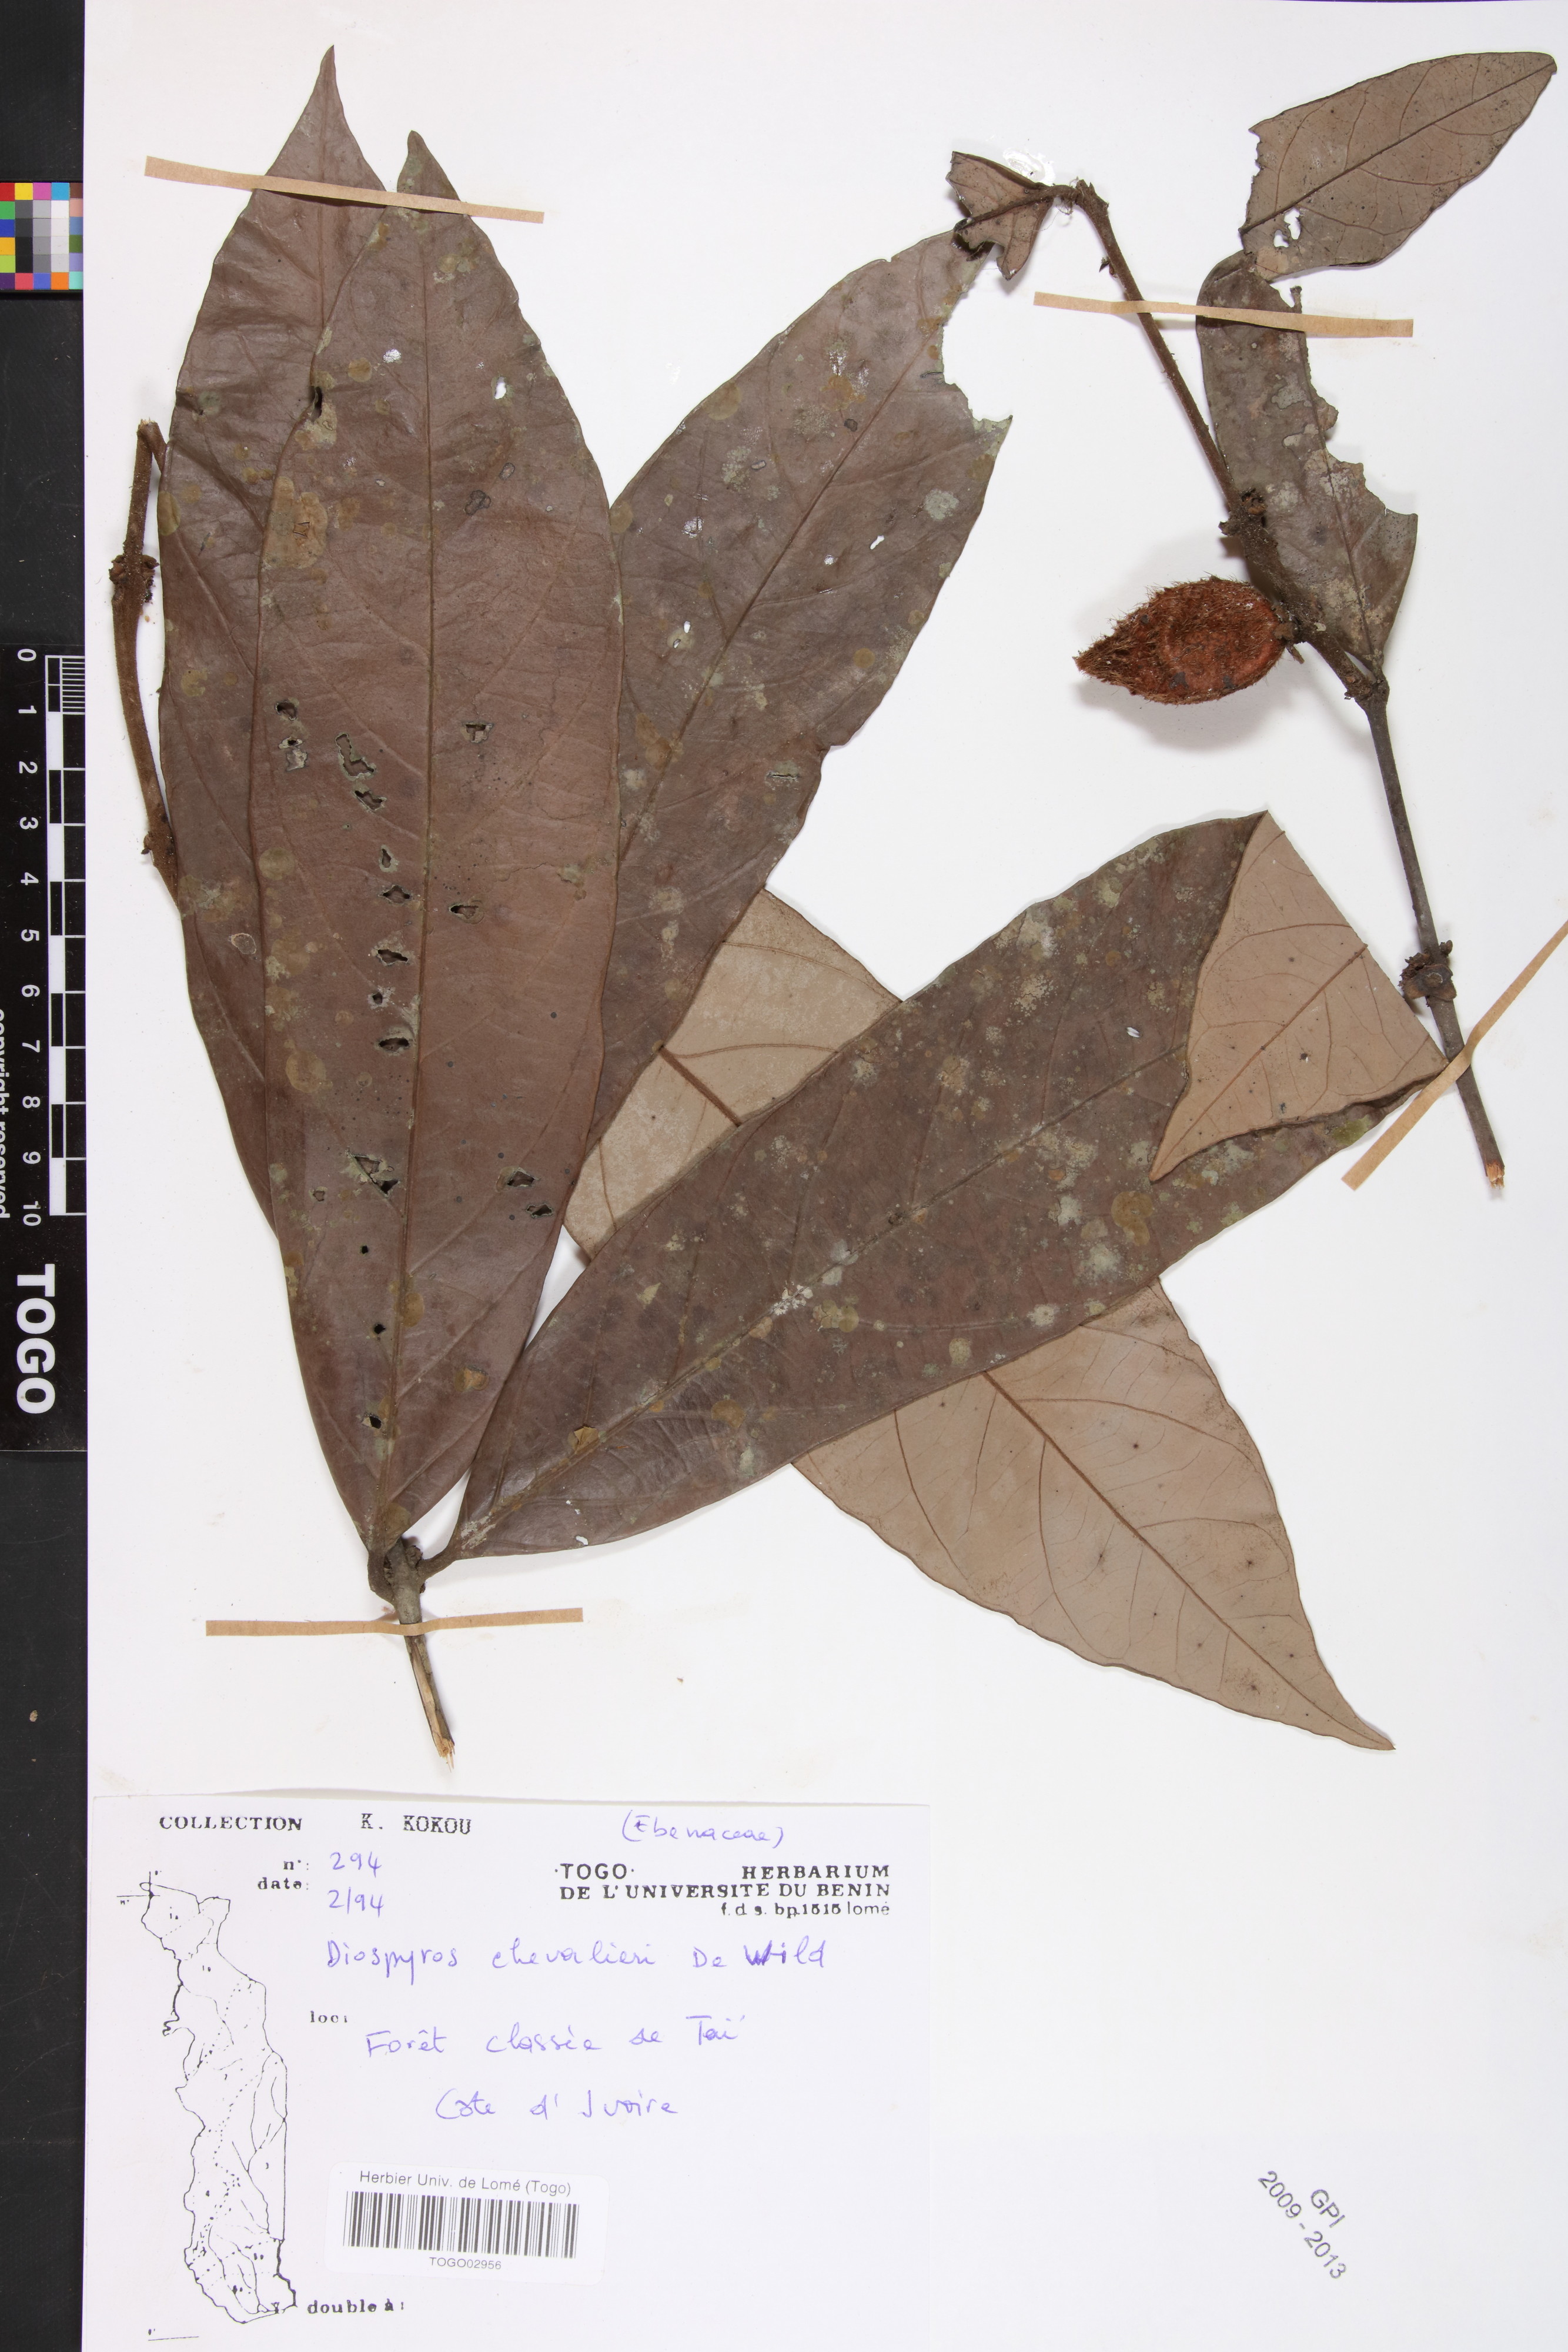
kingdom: Plantae
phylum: Tracheophyta
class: Magnoliopsida
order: Ericales
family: Ebenaceae
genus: Diospyros
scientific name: Diospyros chevalieri
